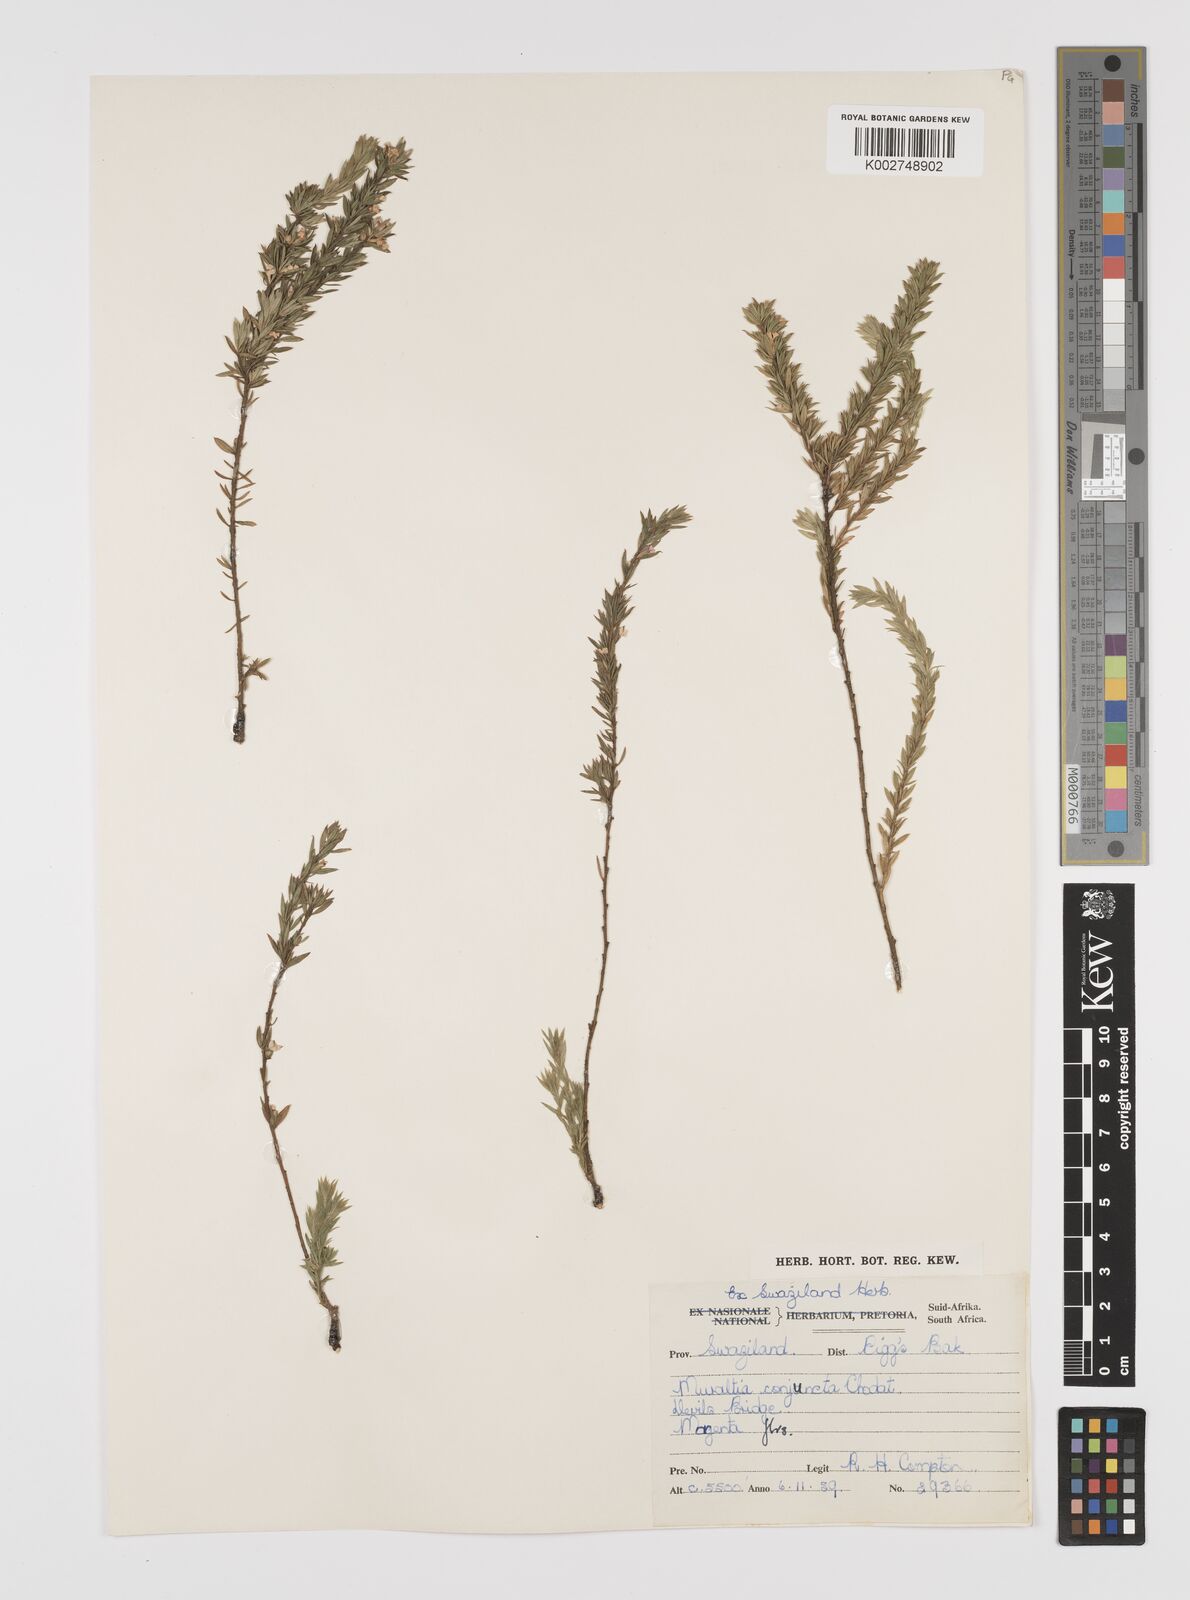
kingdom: Plantae
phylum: Tracheophyta
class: Magnoliopsida
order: Fabales
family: Polygalaceae
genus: Muraltia
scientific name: Muraltia empetroides
